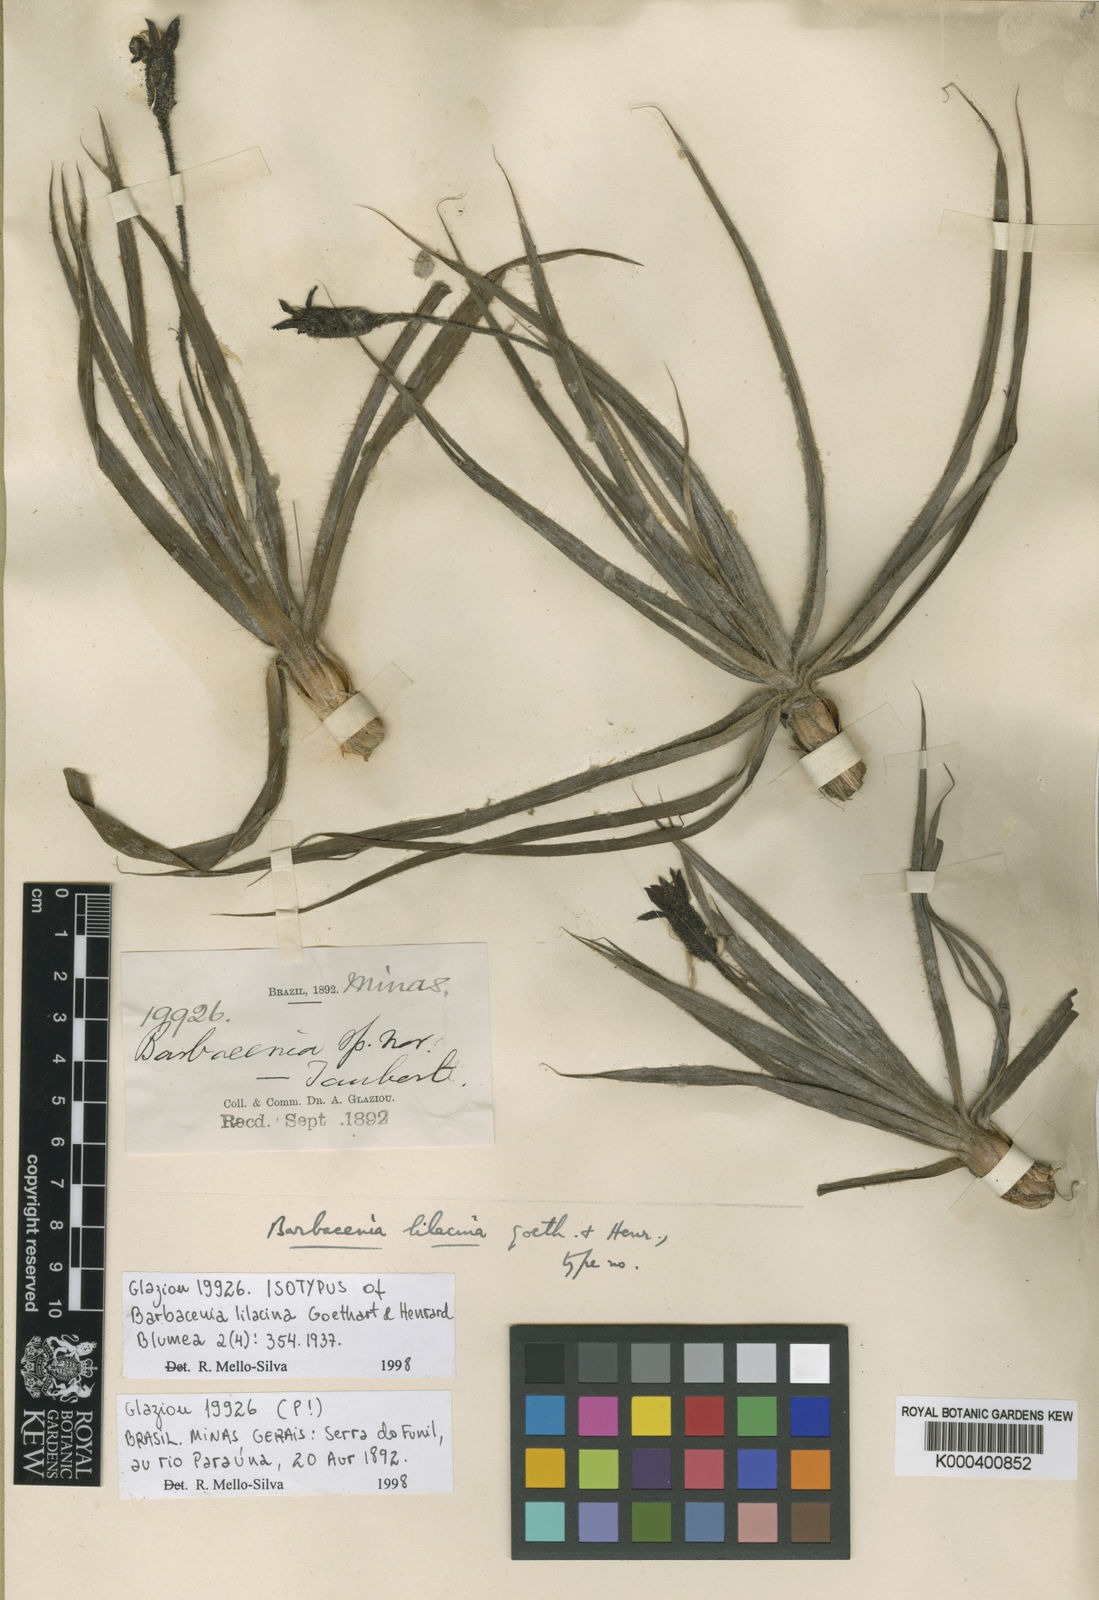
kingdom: Plantae
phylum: Tracheophyta
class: Liliopsida
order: Pandanales
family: Velloziaceae
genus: Barbacenia
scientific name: Barbacenia lilacina
